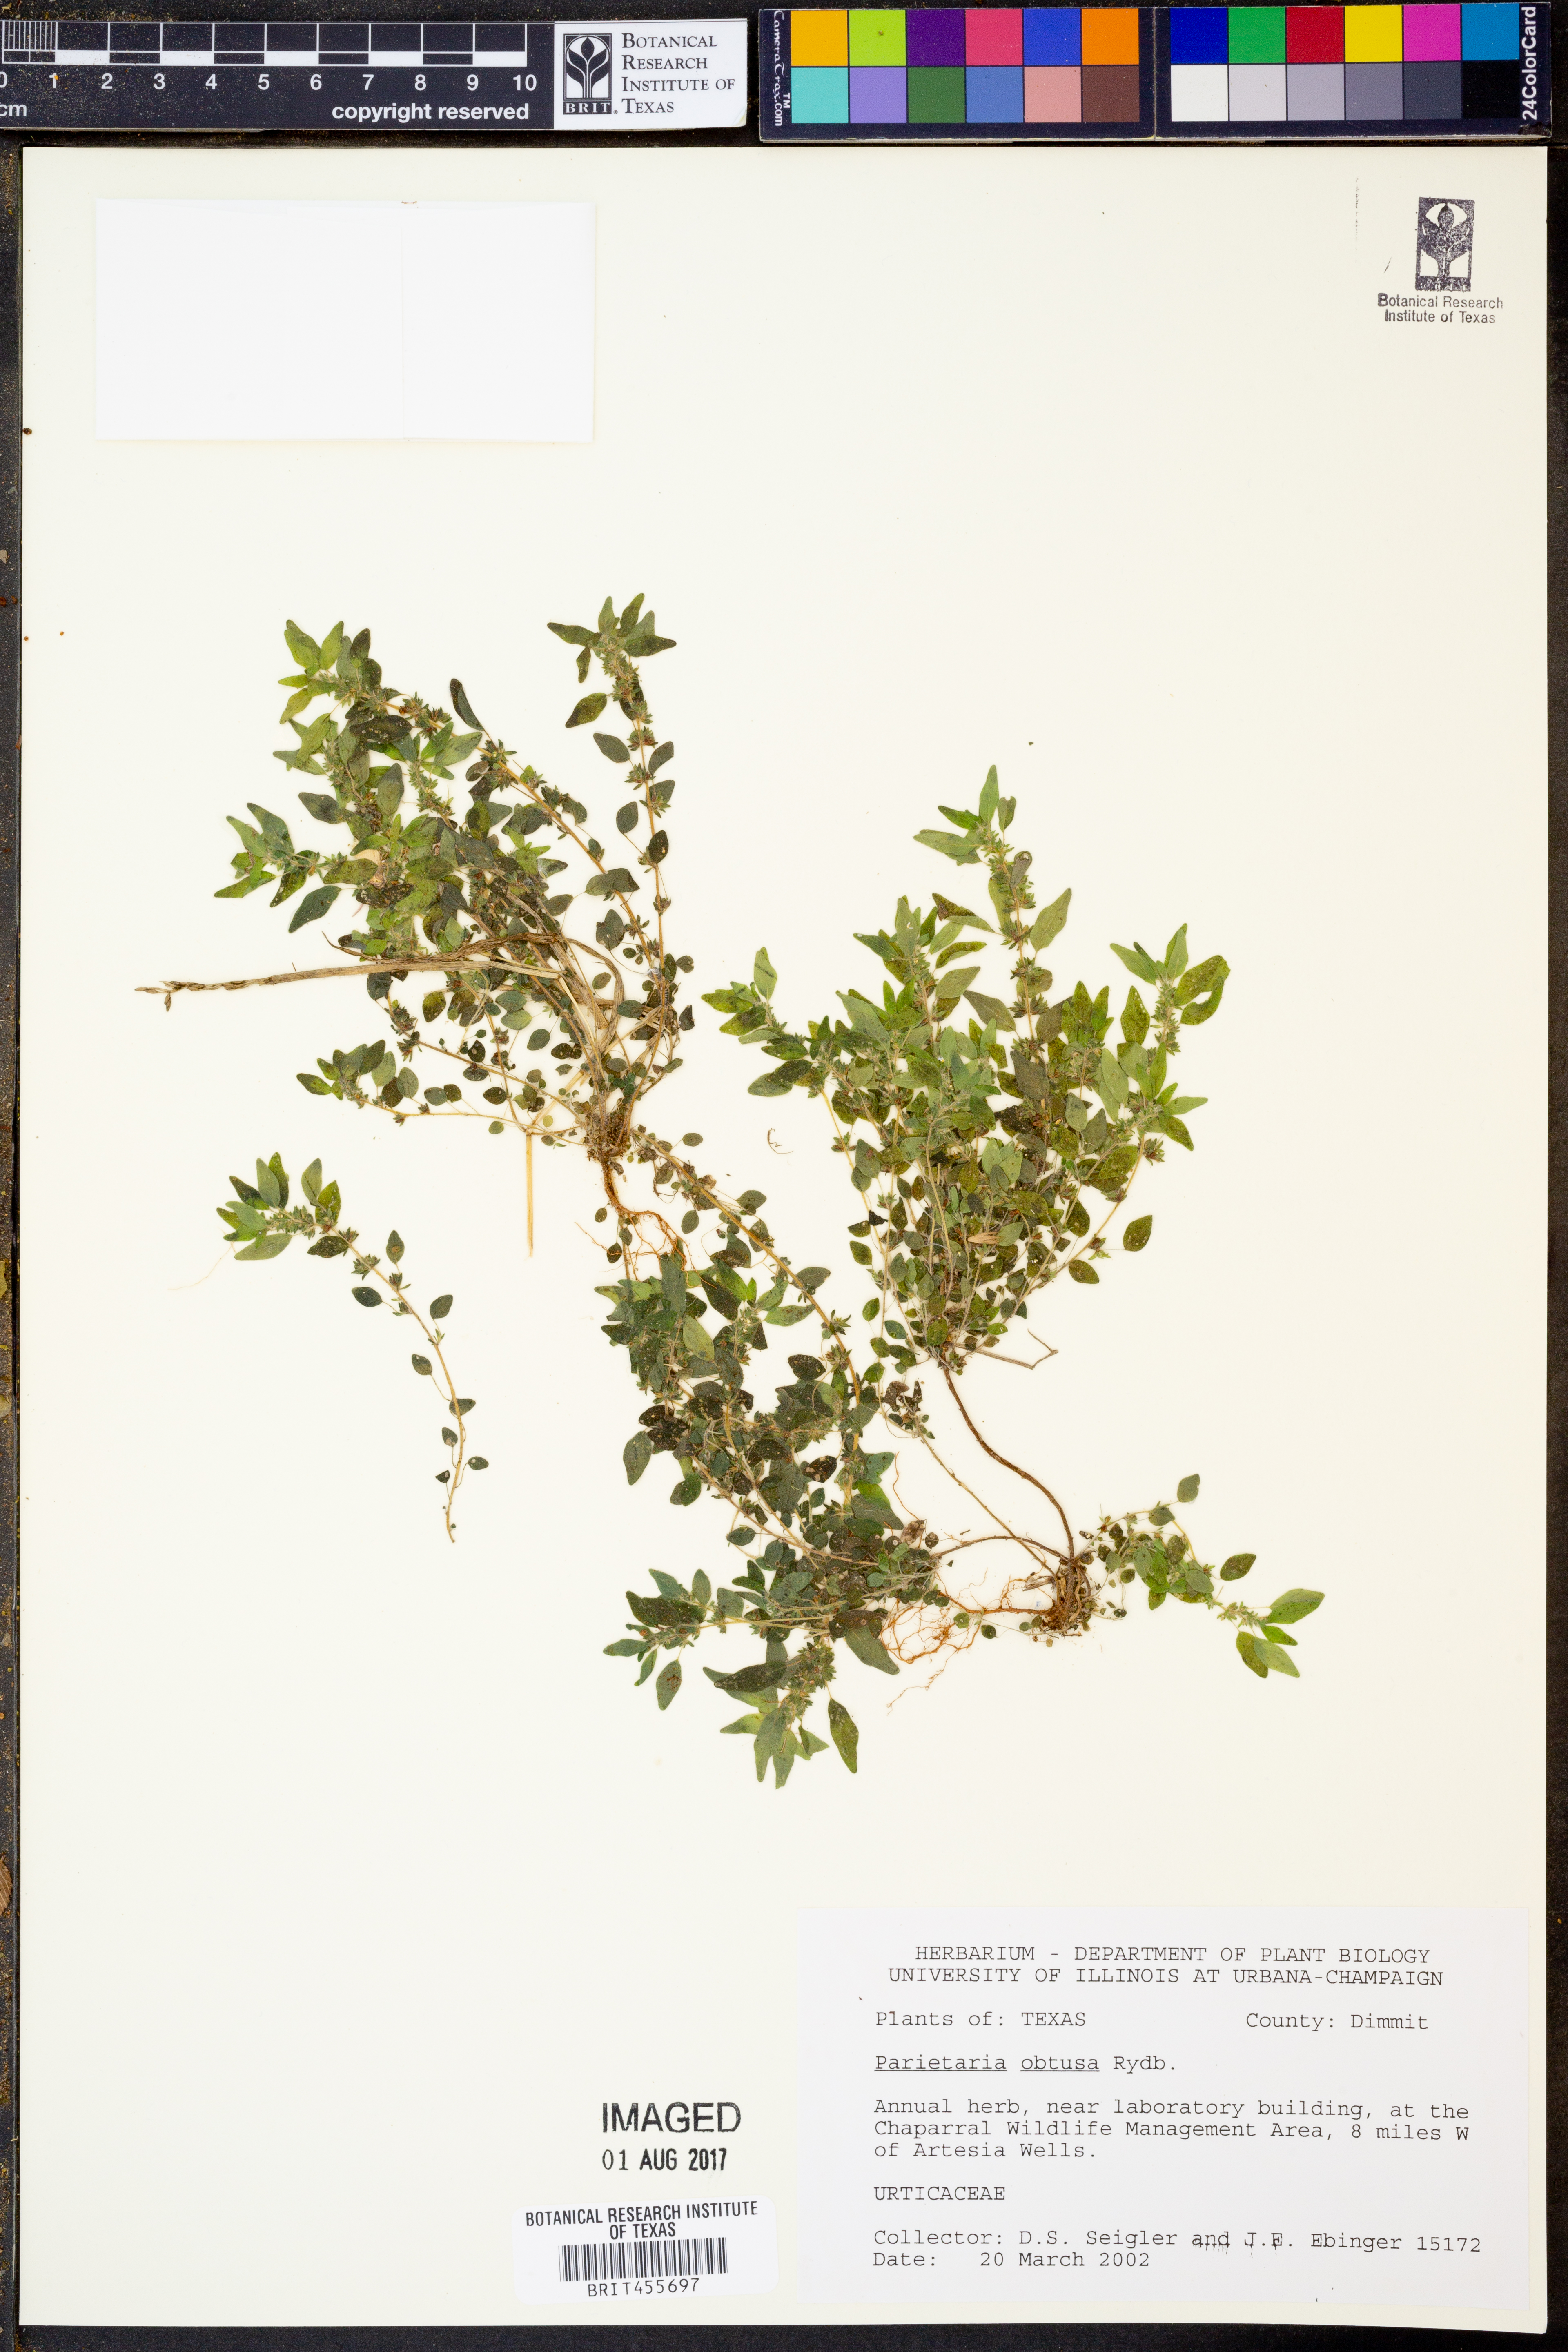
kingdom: Plantae
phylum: Tracheophyta
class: Magnoliopsida
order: Rosales
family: Urticaceae
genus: Parietaria
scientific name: Parietaria pensylvanica
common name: Pennsylvania pellitory
